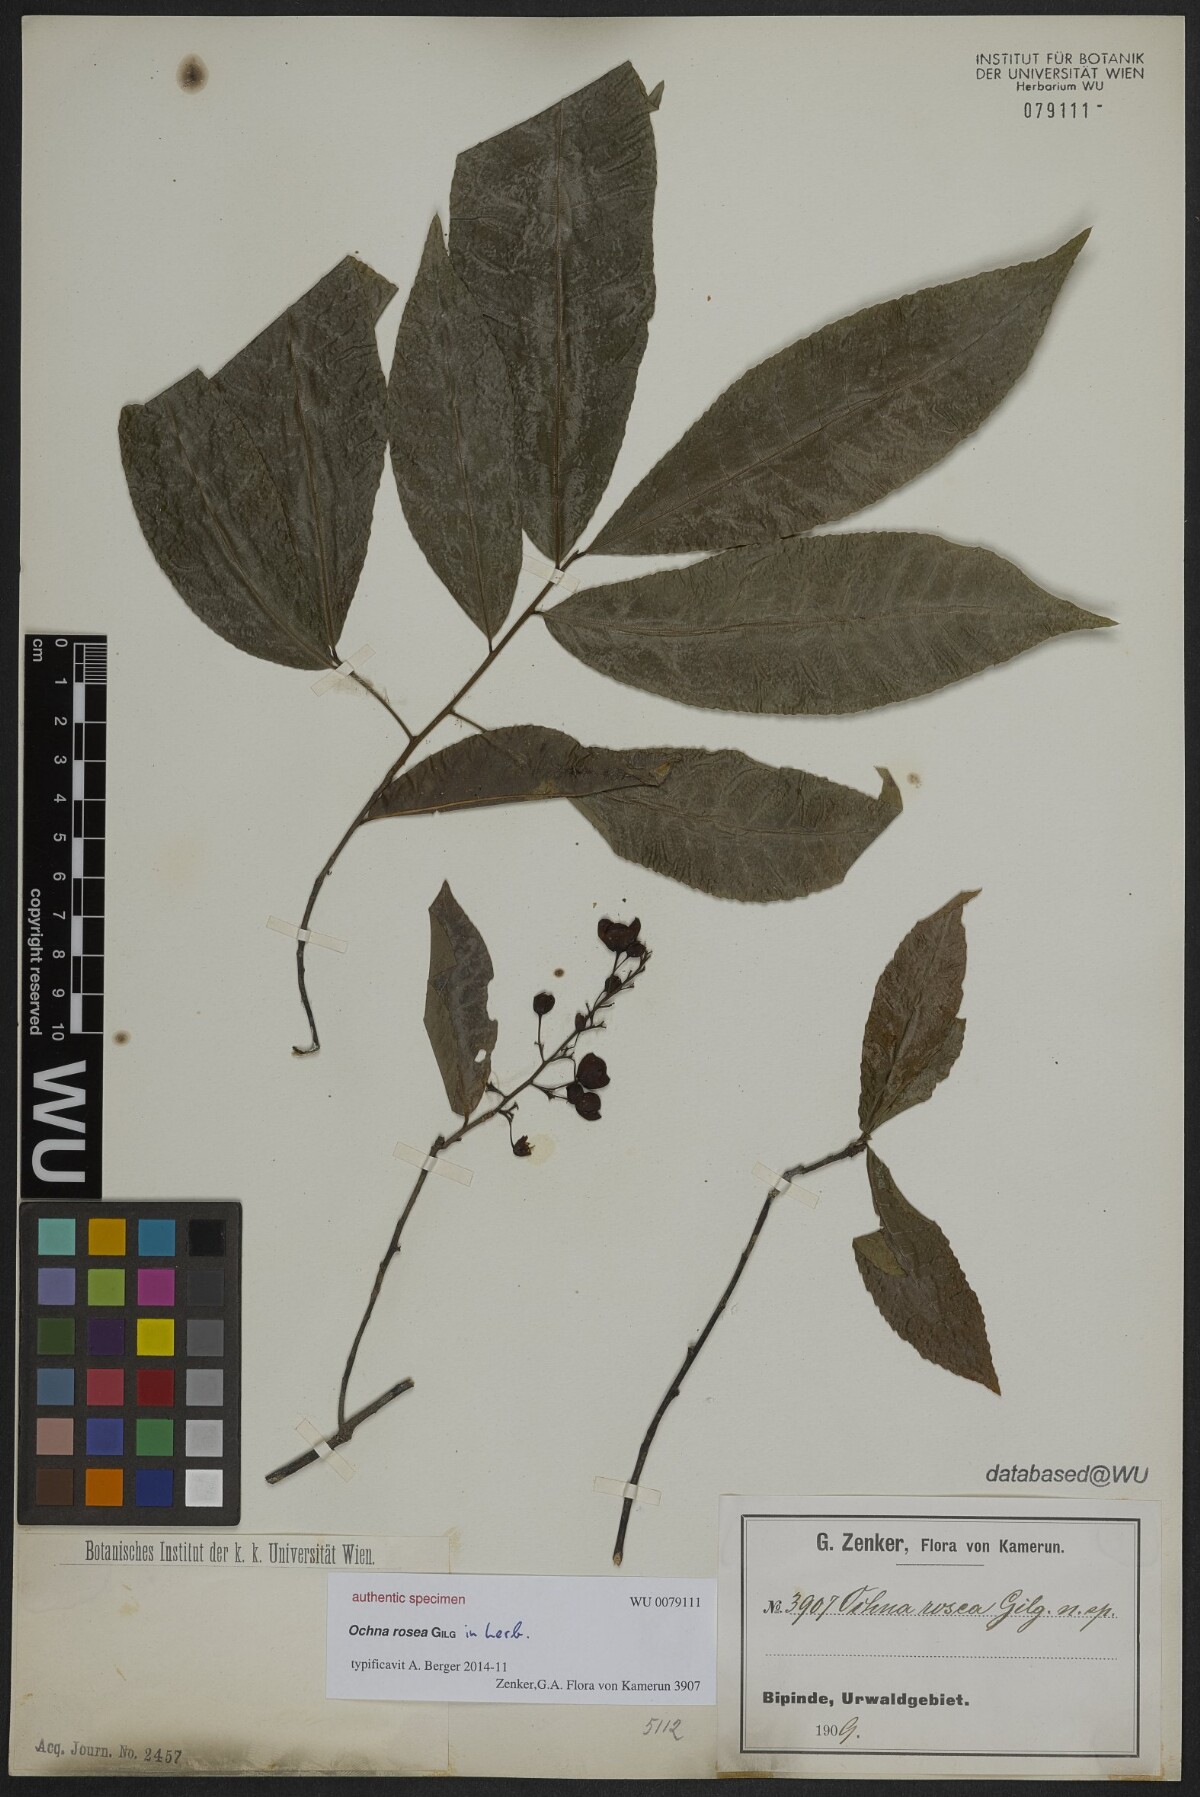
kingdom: Plantae
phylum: Tracheophyta
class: Magnoliopsida
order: Malpighiales
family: Ochnaceae
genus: Ochna
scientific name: Ochna
